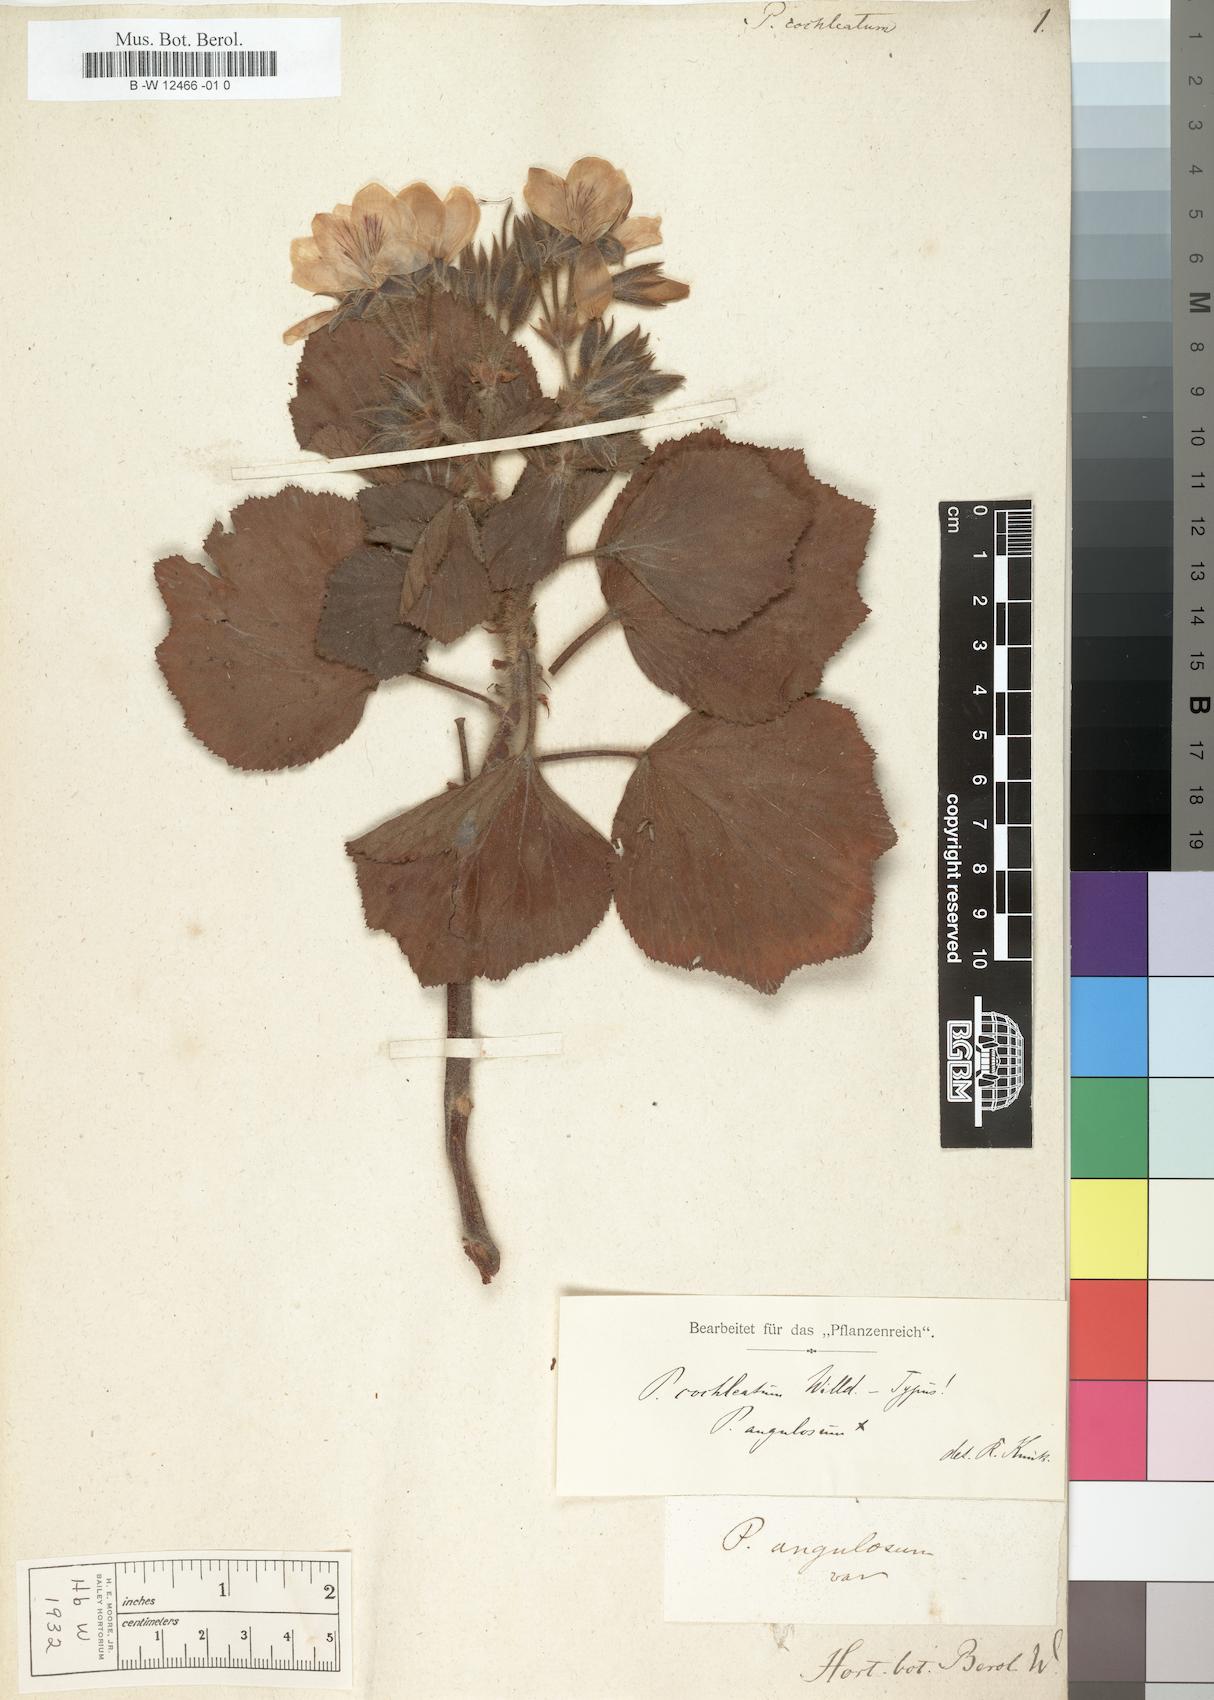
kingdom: Plantae
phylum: Tracheophyta
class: Magnoliopsida
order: Geraniales
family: Geraniaceae
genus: Pelargonium
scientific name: Pelargonium cucullatum
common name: Tree pelargonium
